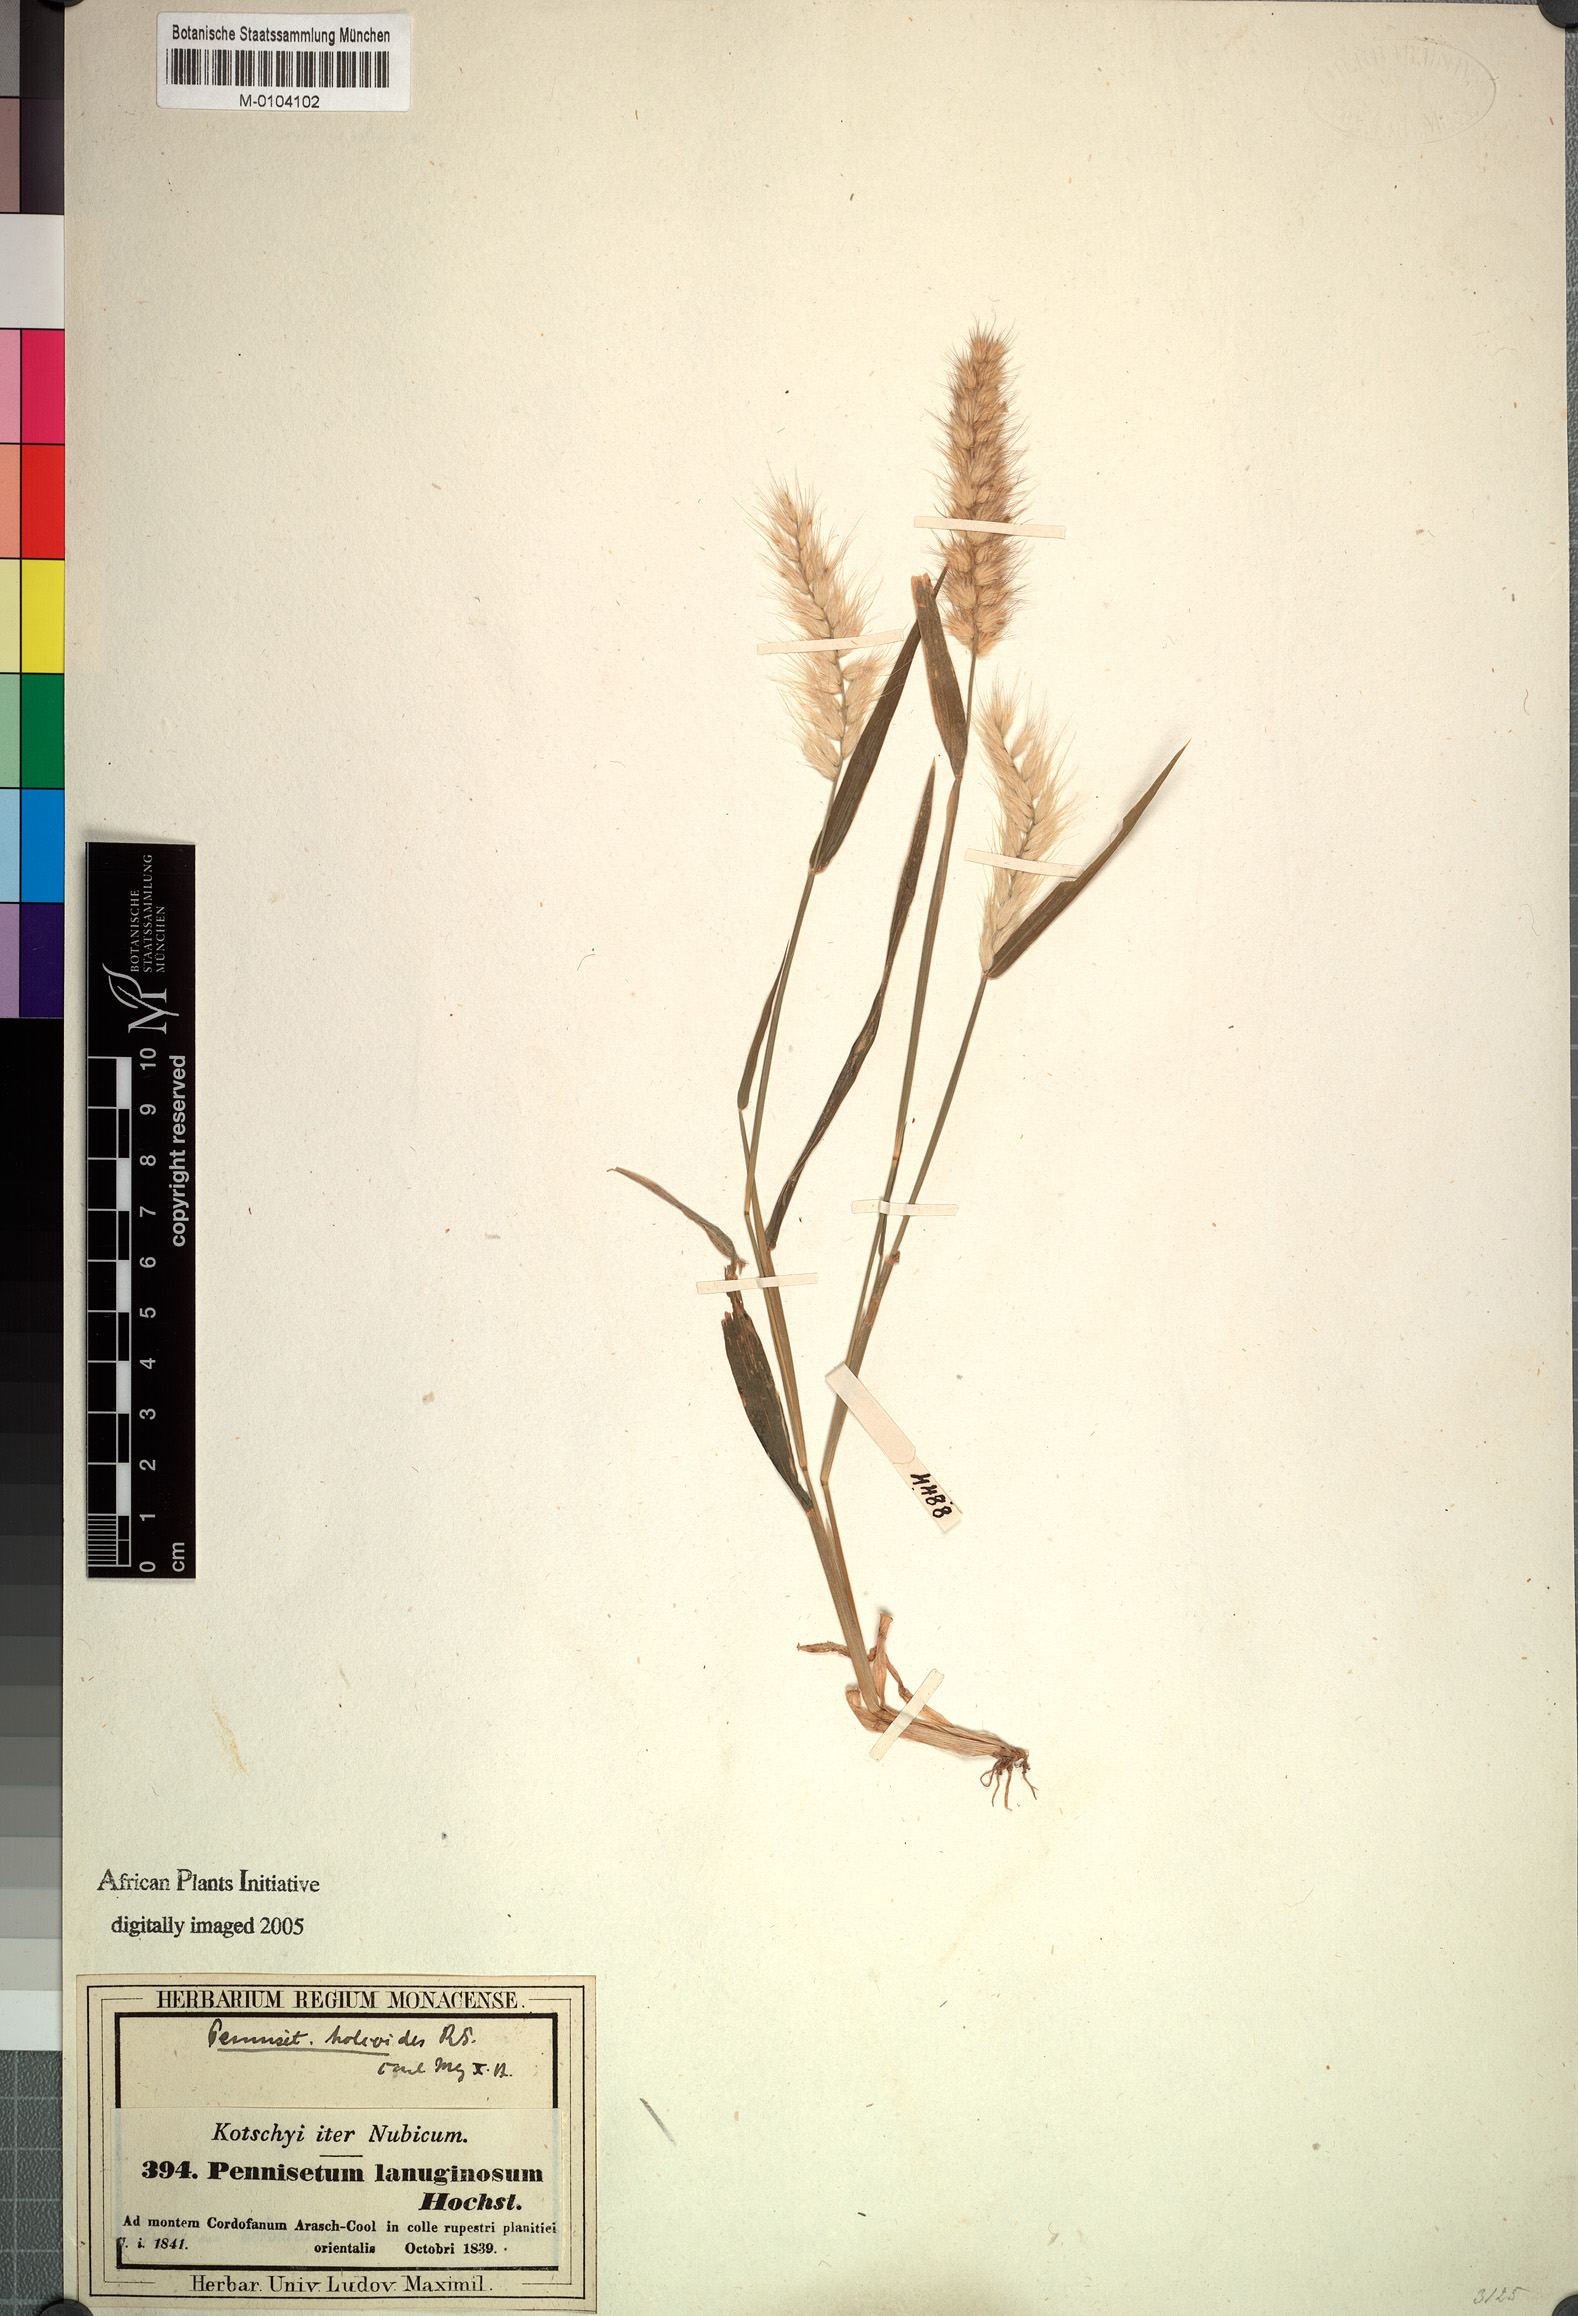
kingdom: Plantae
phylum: Tracheophyta
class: Liliopsida
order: Poales
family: Poaceae
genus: Cenchrus
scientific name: Cenchrus pedicellatus
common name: Hairy fountain grass
